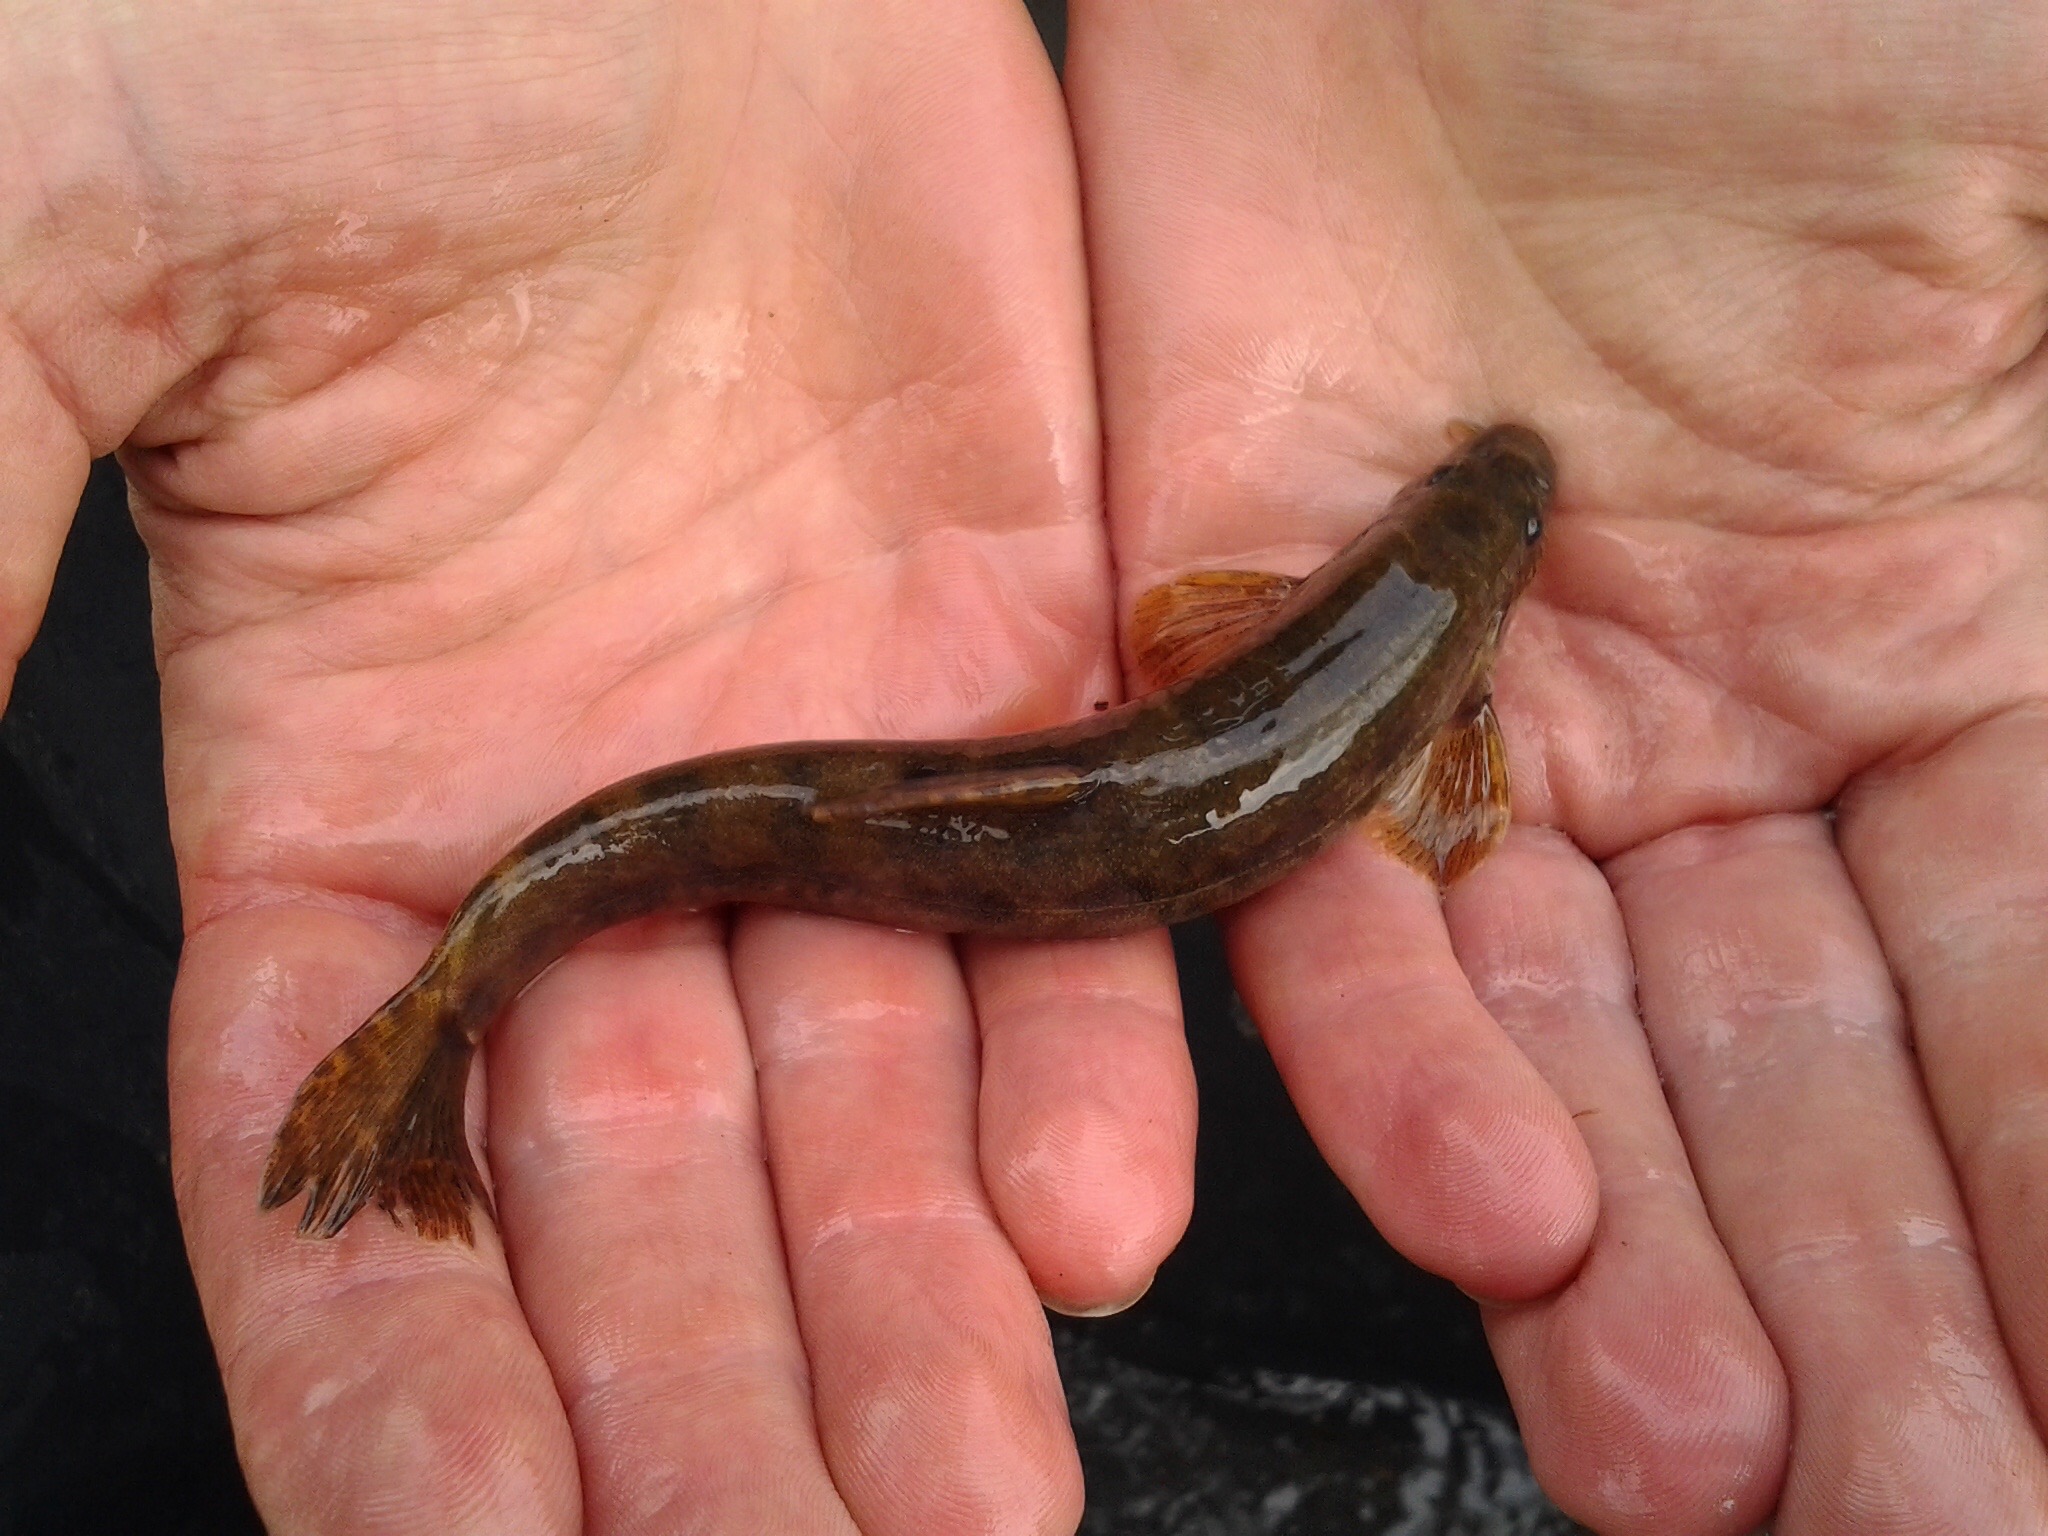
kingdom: Animalia
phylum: Chordata
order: Cypriniformes
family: Nemacheilidae
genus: Barbatula
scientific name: Barbatula barbatula
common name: Smerling
